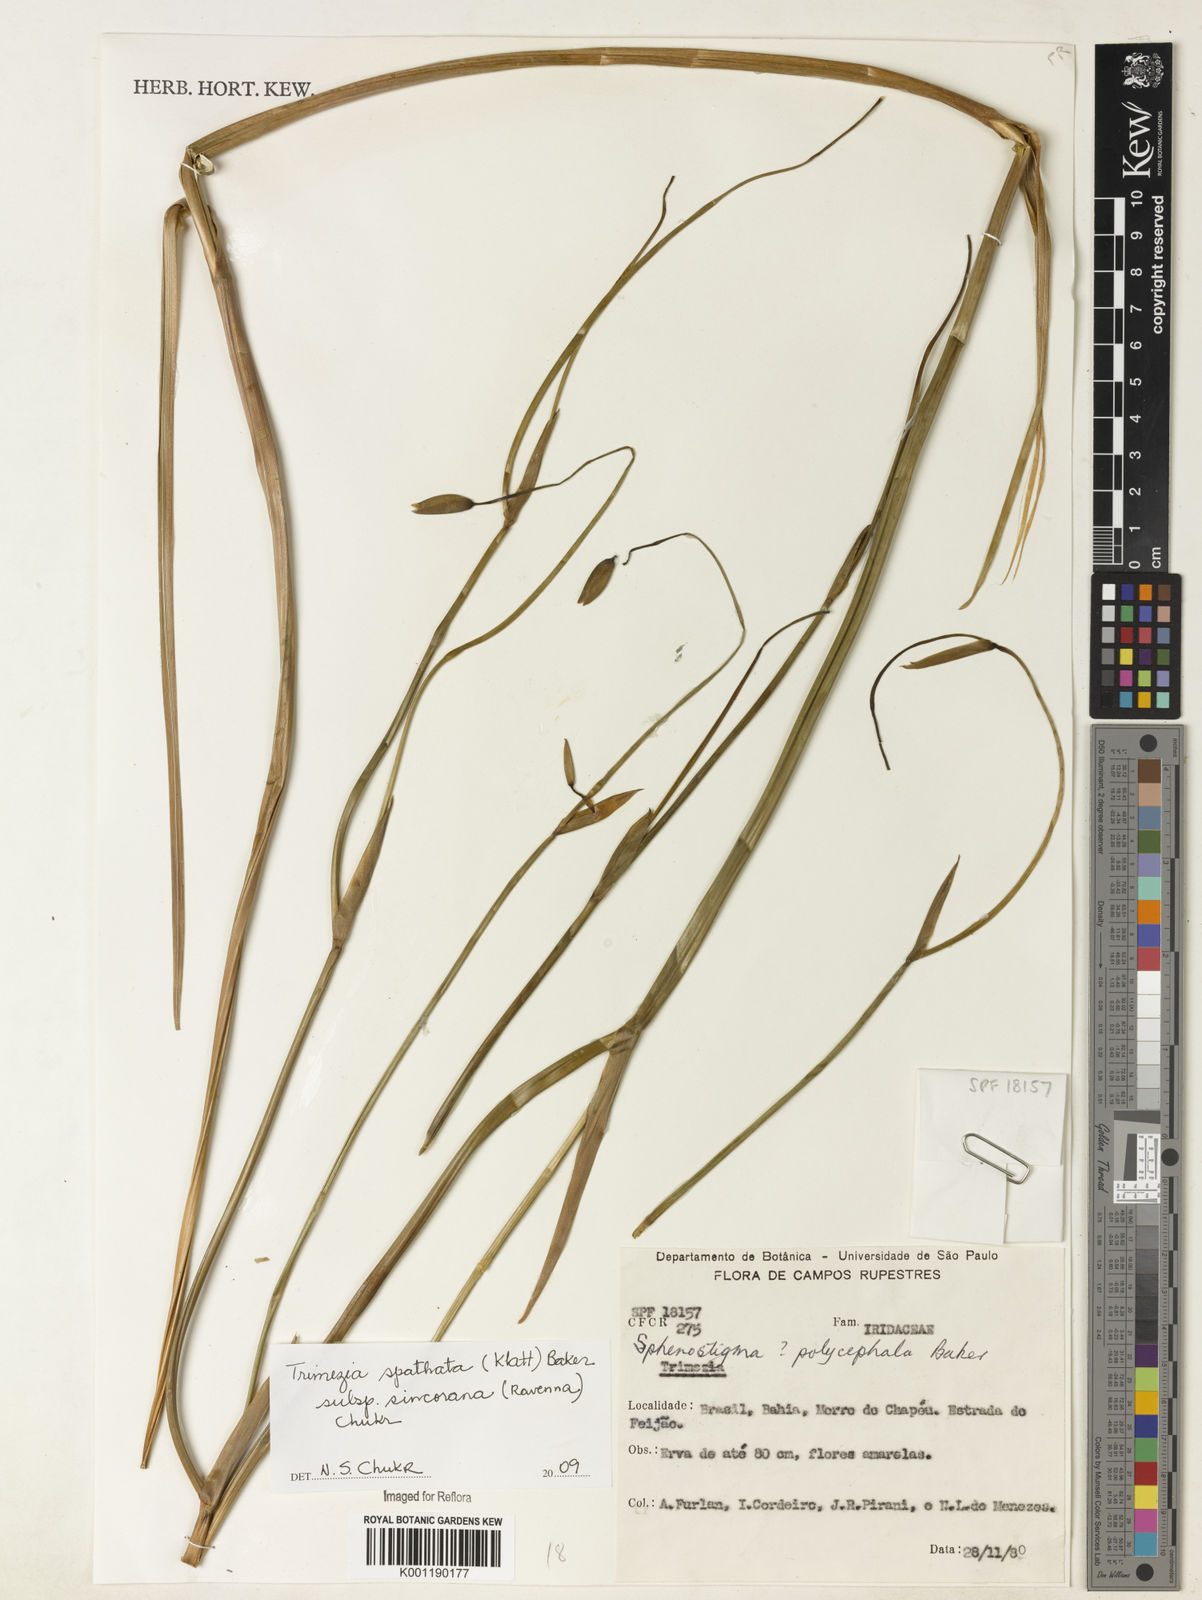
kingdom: Plantae
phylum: Tracheophyta
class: Liliopsida
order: Asparagales
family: Iridaceae
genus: Trimezia
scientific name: Trimezia spathata
